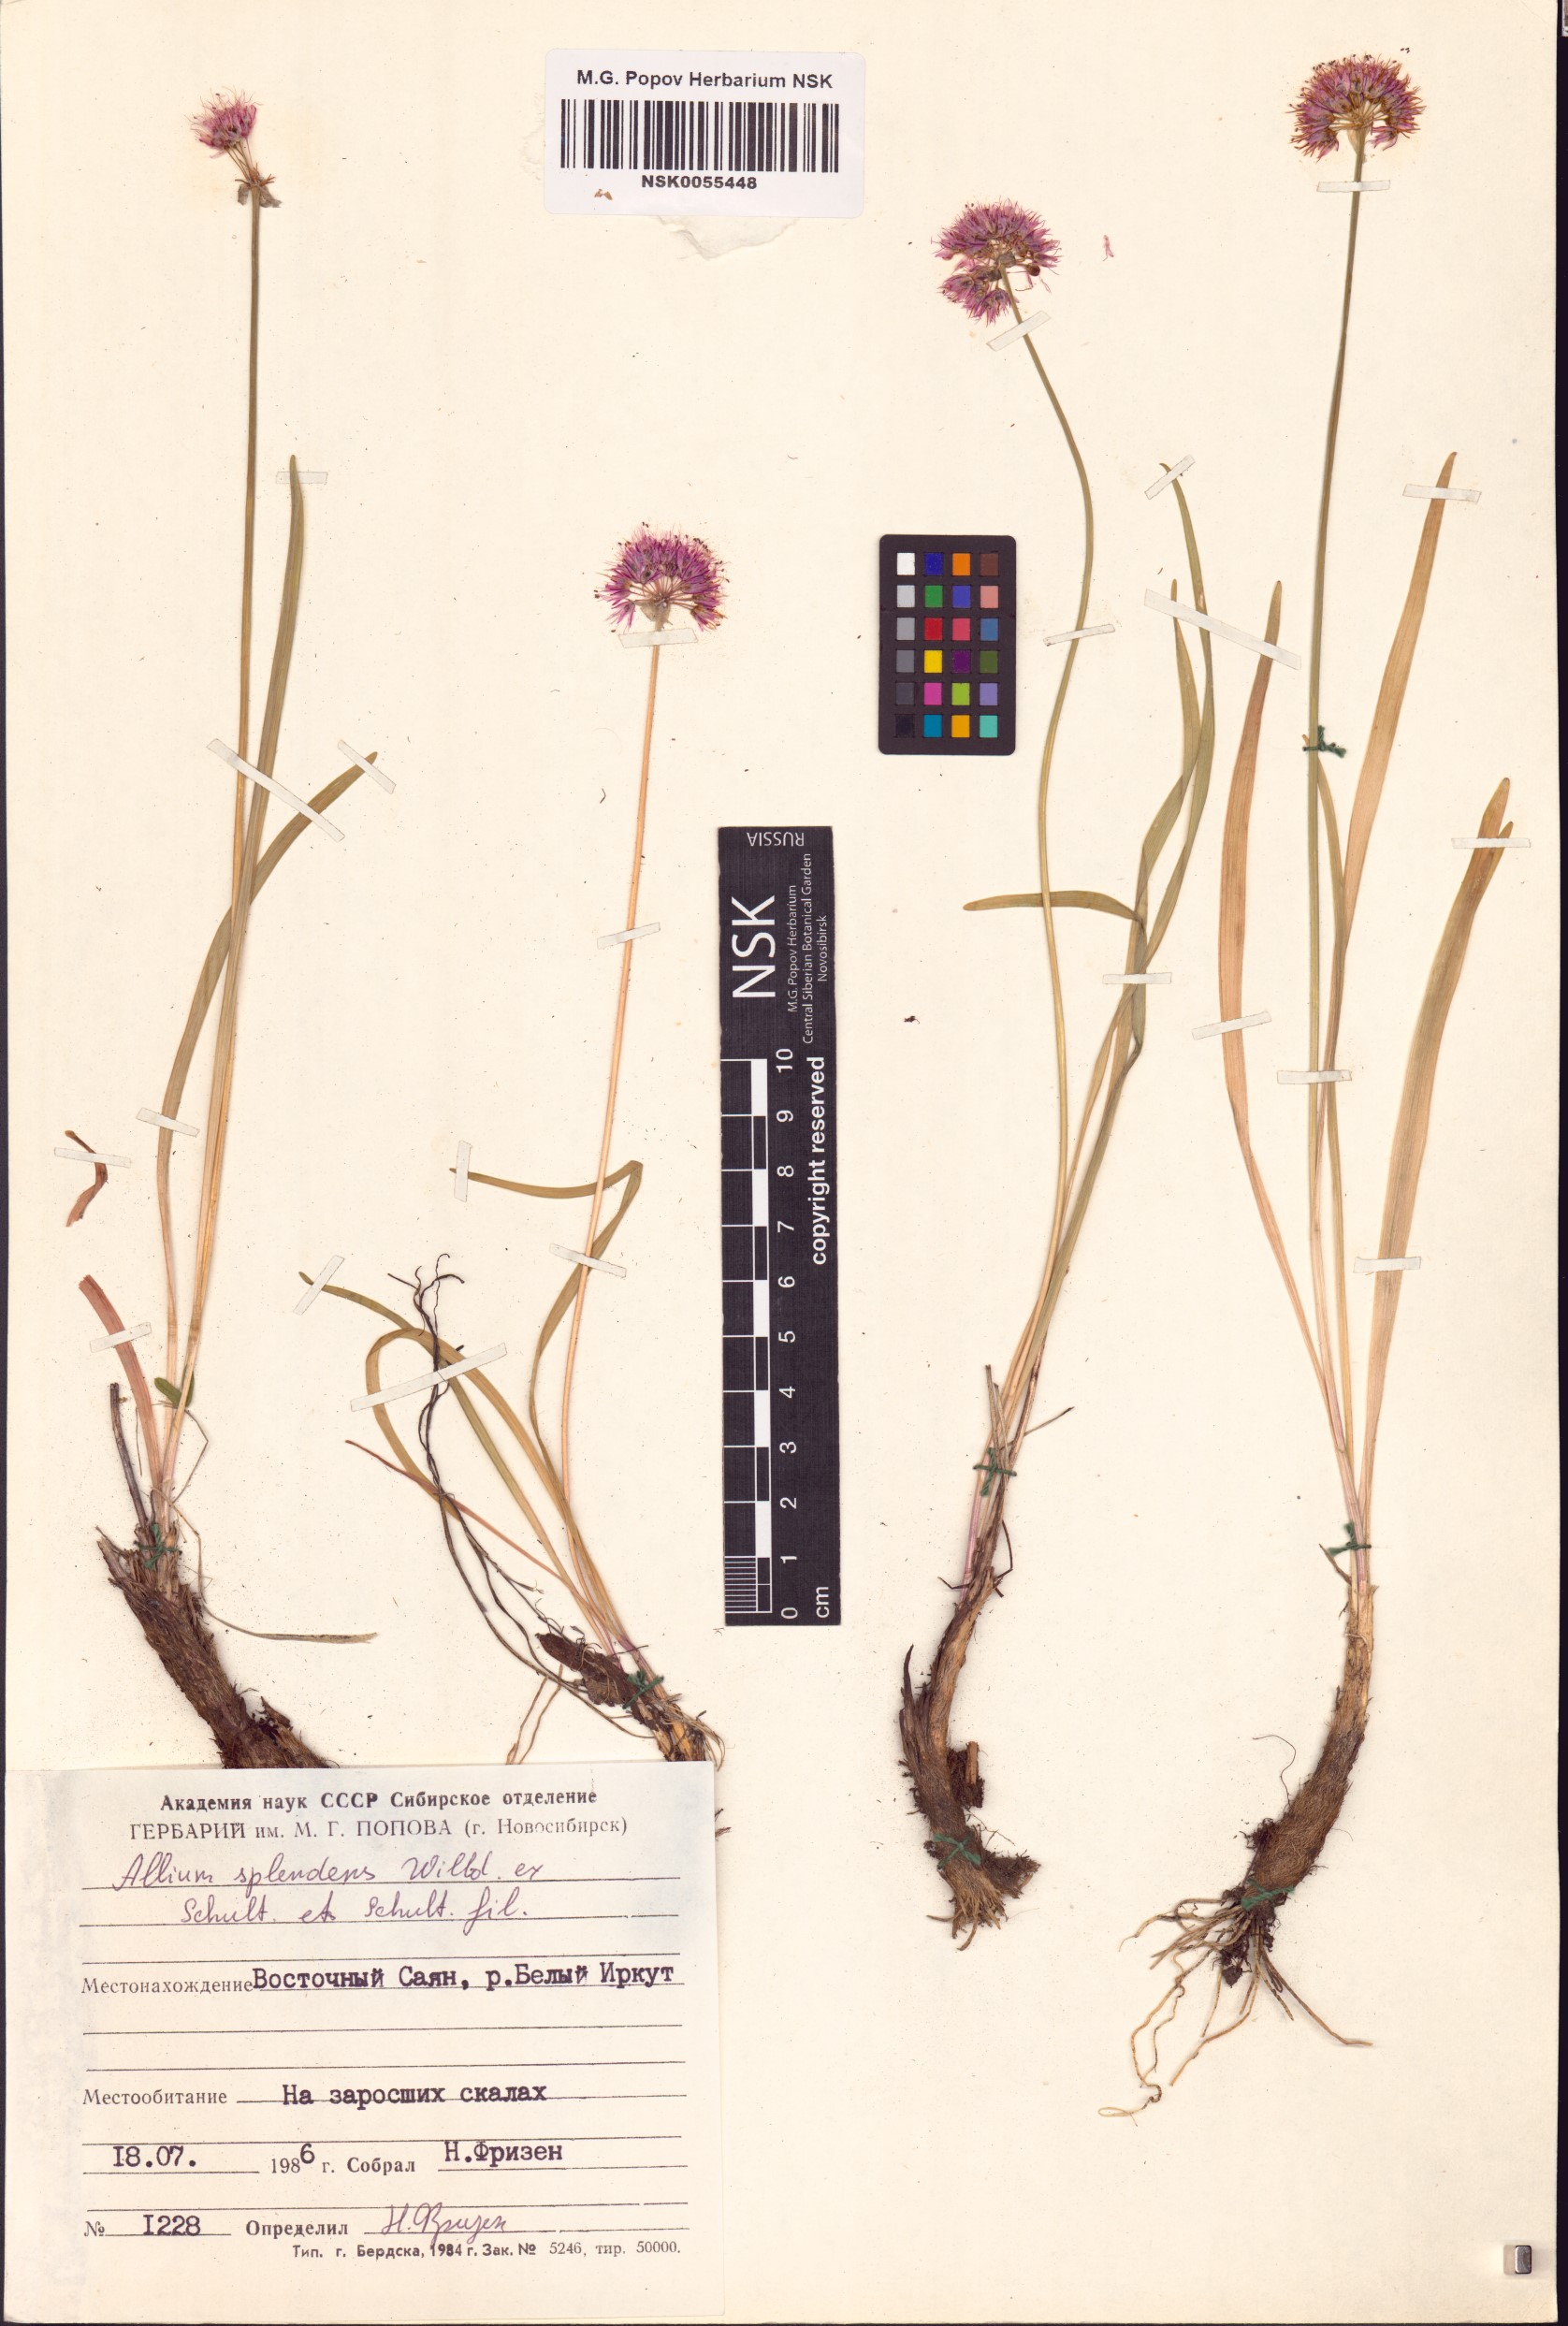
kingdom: Plantae
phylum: Tracheophyta
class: Liliopsida
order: Asparagales
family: Amaryllidaceae
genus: Allium
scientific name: Allium splendens
